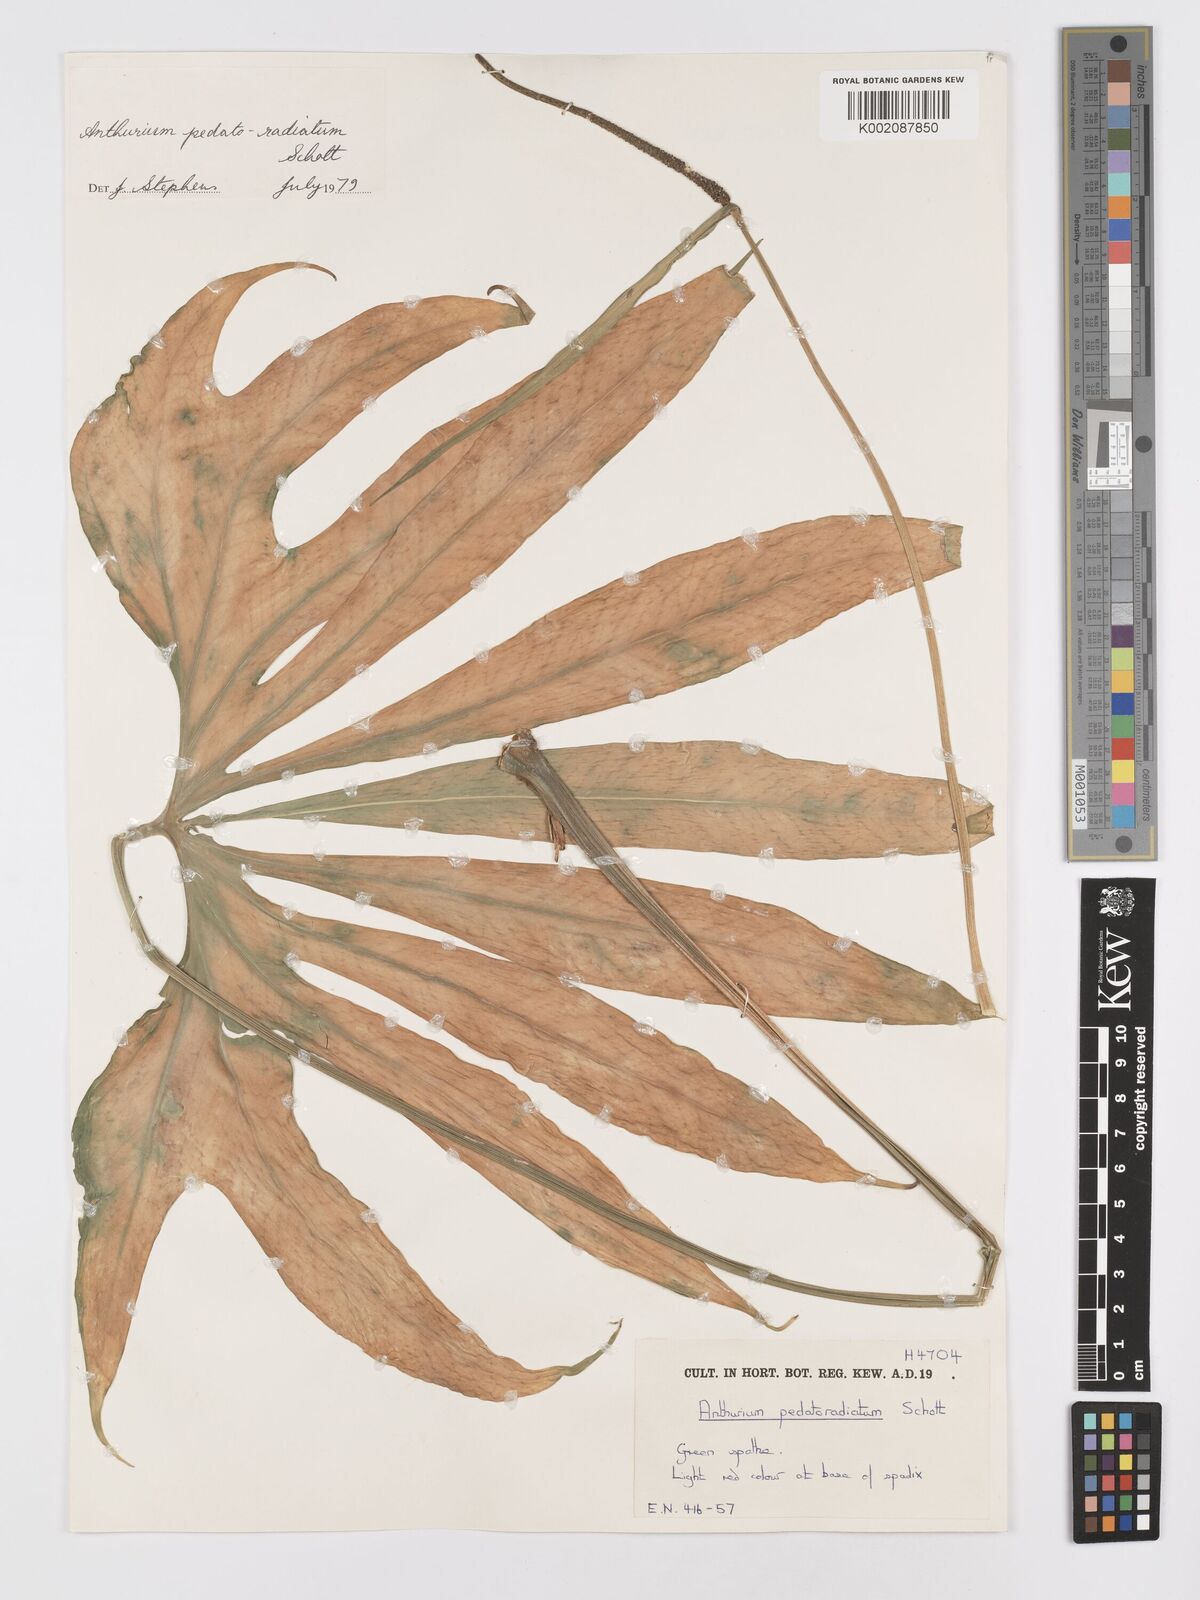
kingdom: Plantae
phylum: Tracheophyta
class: Liliopsida
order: Alismatales
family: Araceae
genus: Anthurium
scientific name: Anthurium pedatoradiatum
